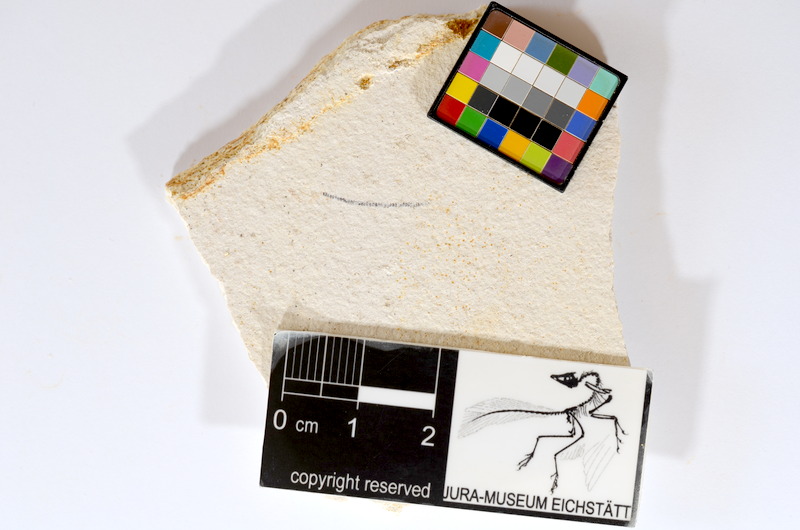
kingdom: Animalia
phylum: Chordata
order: Salmoniformes
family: Orthogonikleithridae
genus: Orthogonikleithrus
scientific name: Orthogonikleithrus hoelli
